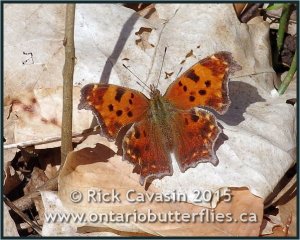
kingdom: Animalia
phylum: Arthropoda
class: Insecta
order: Lepidoptera
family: Nymphalidae
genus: Polygonia
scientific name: Polygonia comma
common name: Eastern Comma
